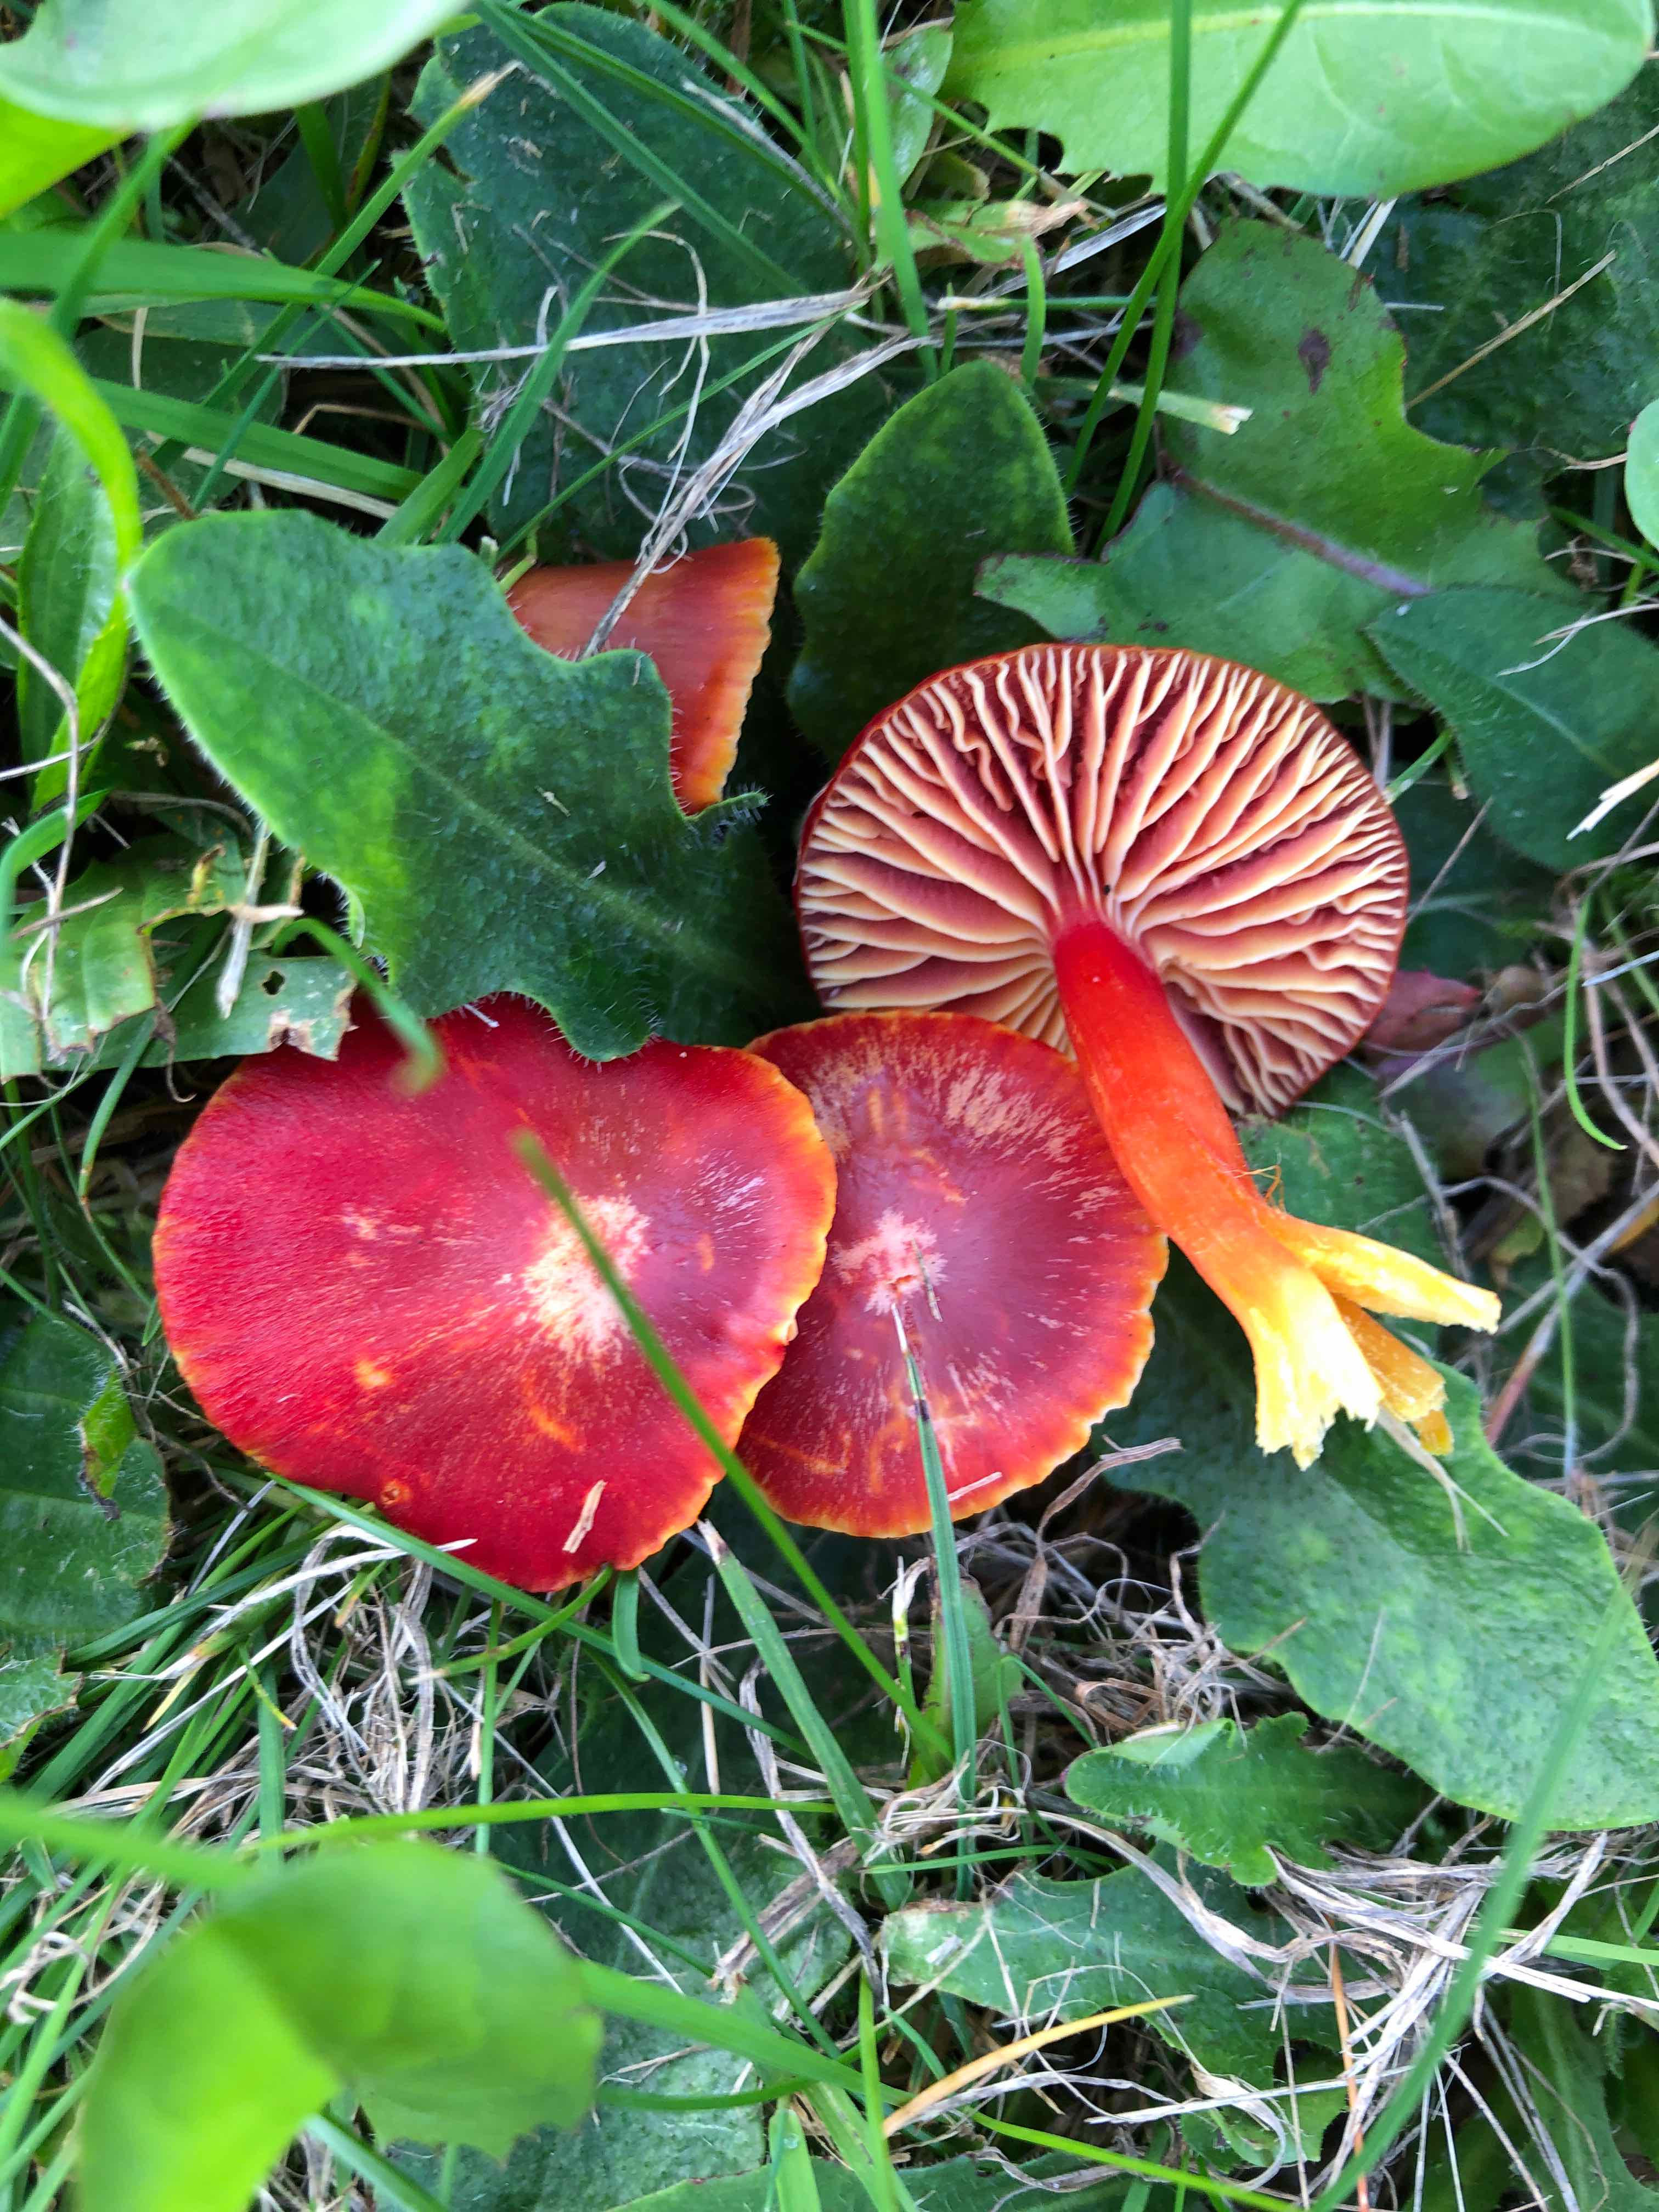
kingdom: Fungi
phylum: Basidiomycota
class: Agaricomycetes
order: Agaricales
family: Hygrophoraceae
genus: Hygrocybe
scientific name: Hygrocybe coccinea
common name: cinnober-vokshat
